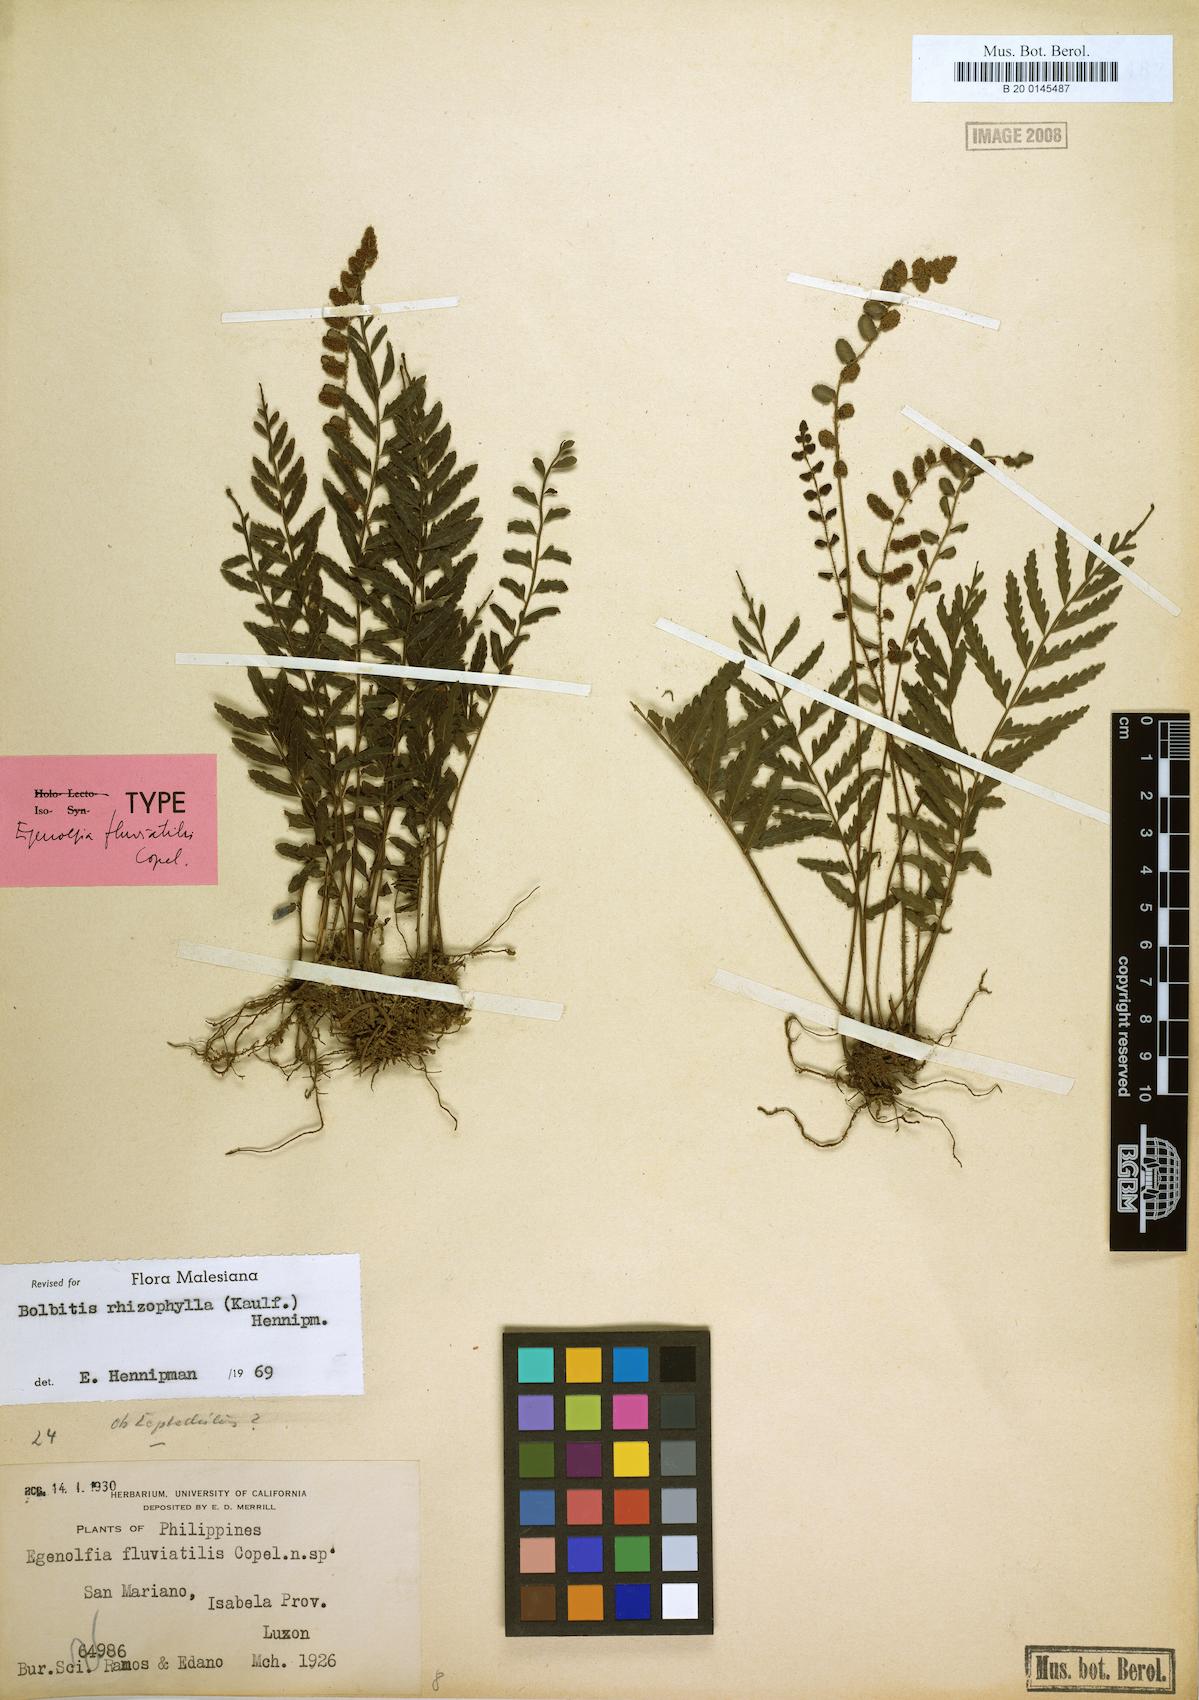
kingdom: Plantae
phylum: Tracheophyta
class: Polypodiopsida
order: Polypodiales
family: Dryopteridaceae
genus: Bolbitis
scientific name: Bolbitis rhizophylla
